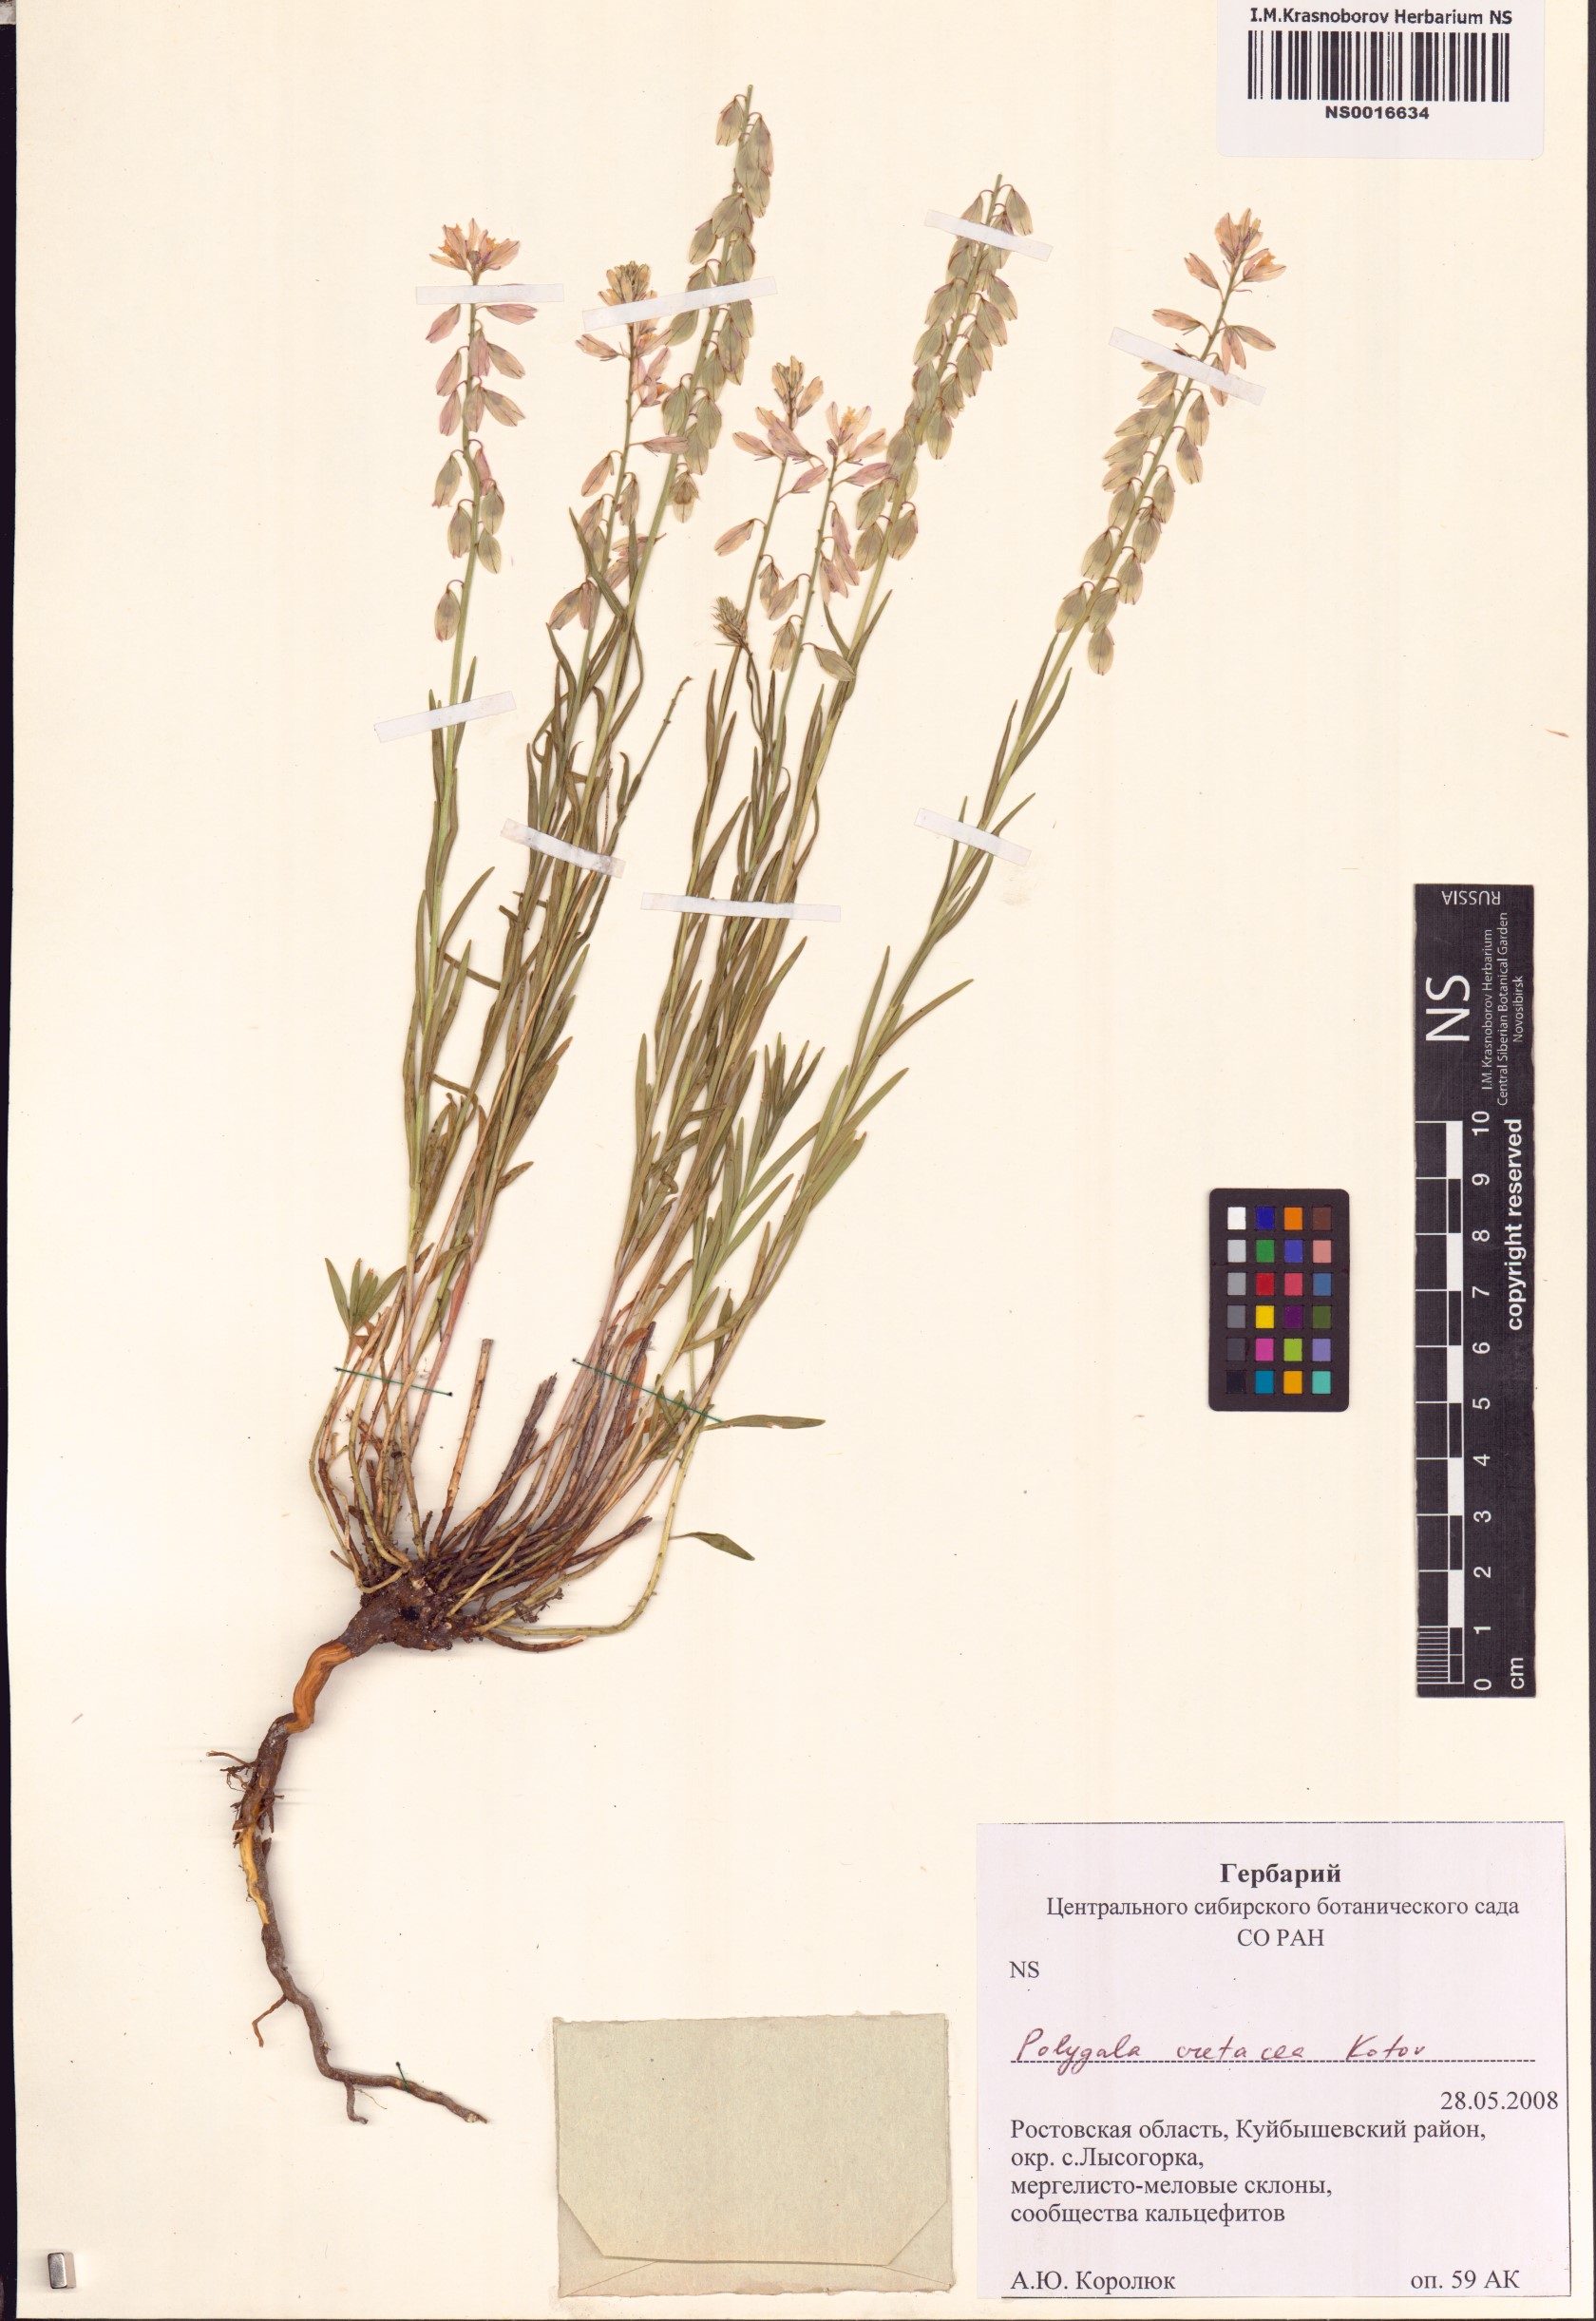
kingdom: Plantae
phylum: Tracheophyta
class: Magnoliopsida
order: Fabales
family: Polygalaceae
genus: Polygala
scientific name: Polygala nicaeensis
